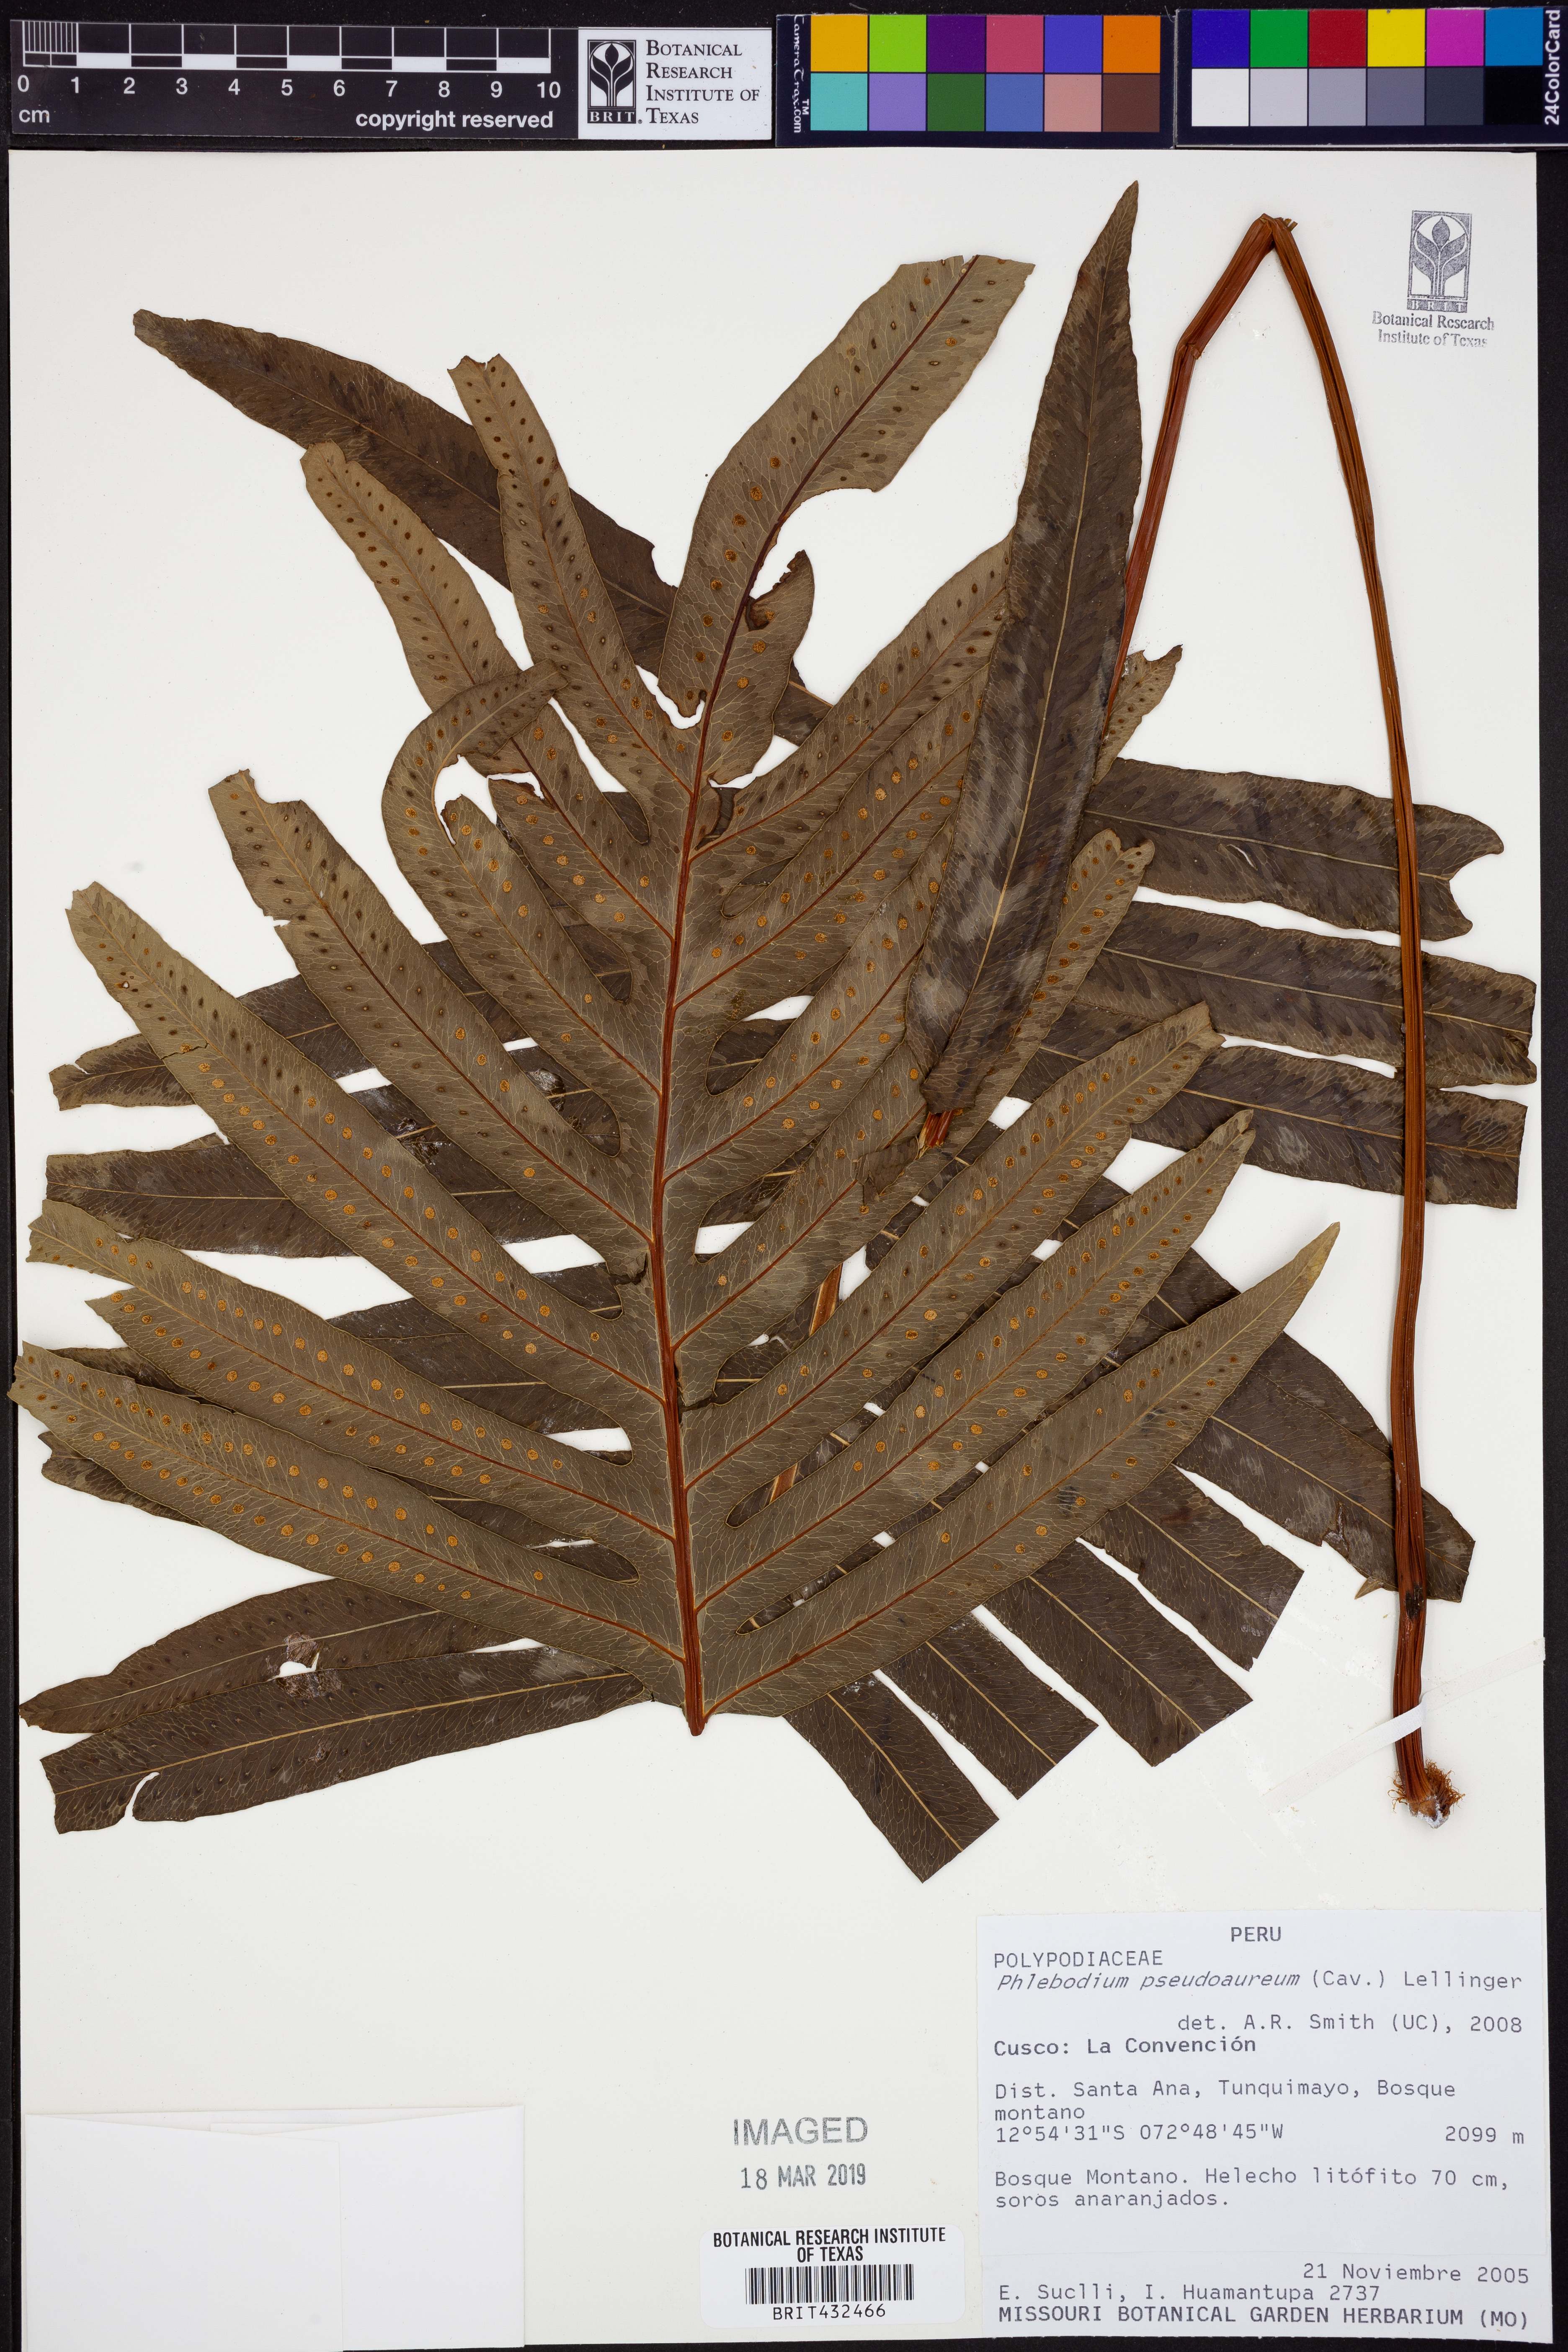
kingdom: Plantae
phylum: Tracheophyta
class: Polypodiopsida
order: Polypodiales
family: Polypodiaceae
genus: Phlebodium
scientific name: Phlebodium pseudoaureum
